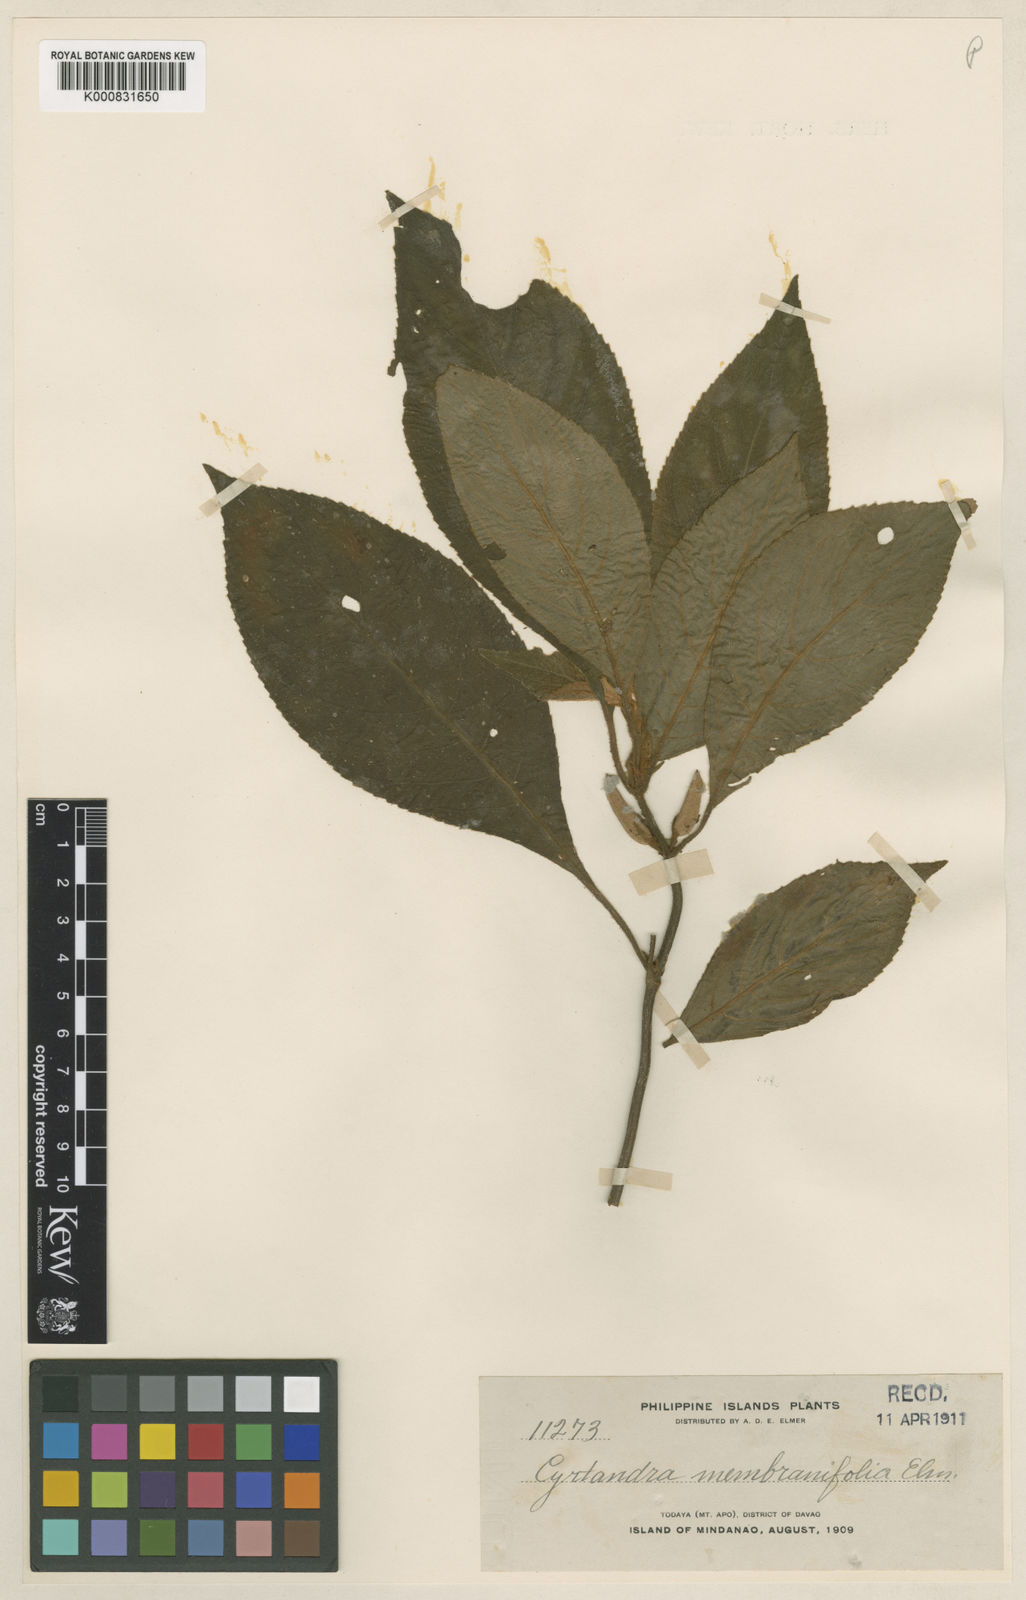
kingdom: Plantae
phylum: Tracheophyta
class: Magnoliopsida
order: Lamiales
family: Gesneriaceae
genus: Cyrtandra
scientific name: Cyrtandra membranifolia
